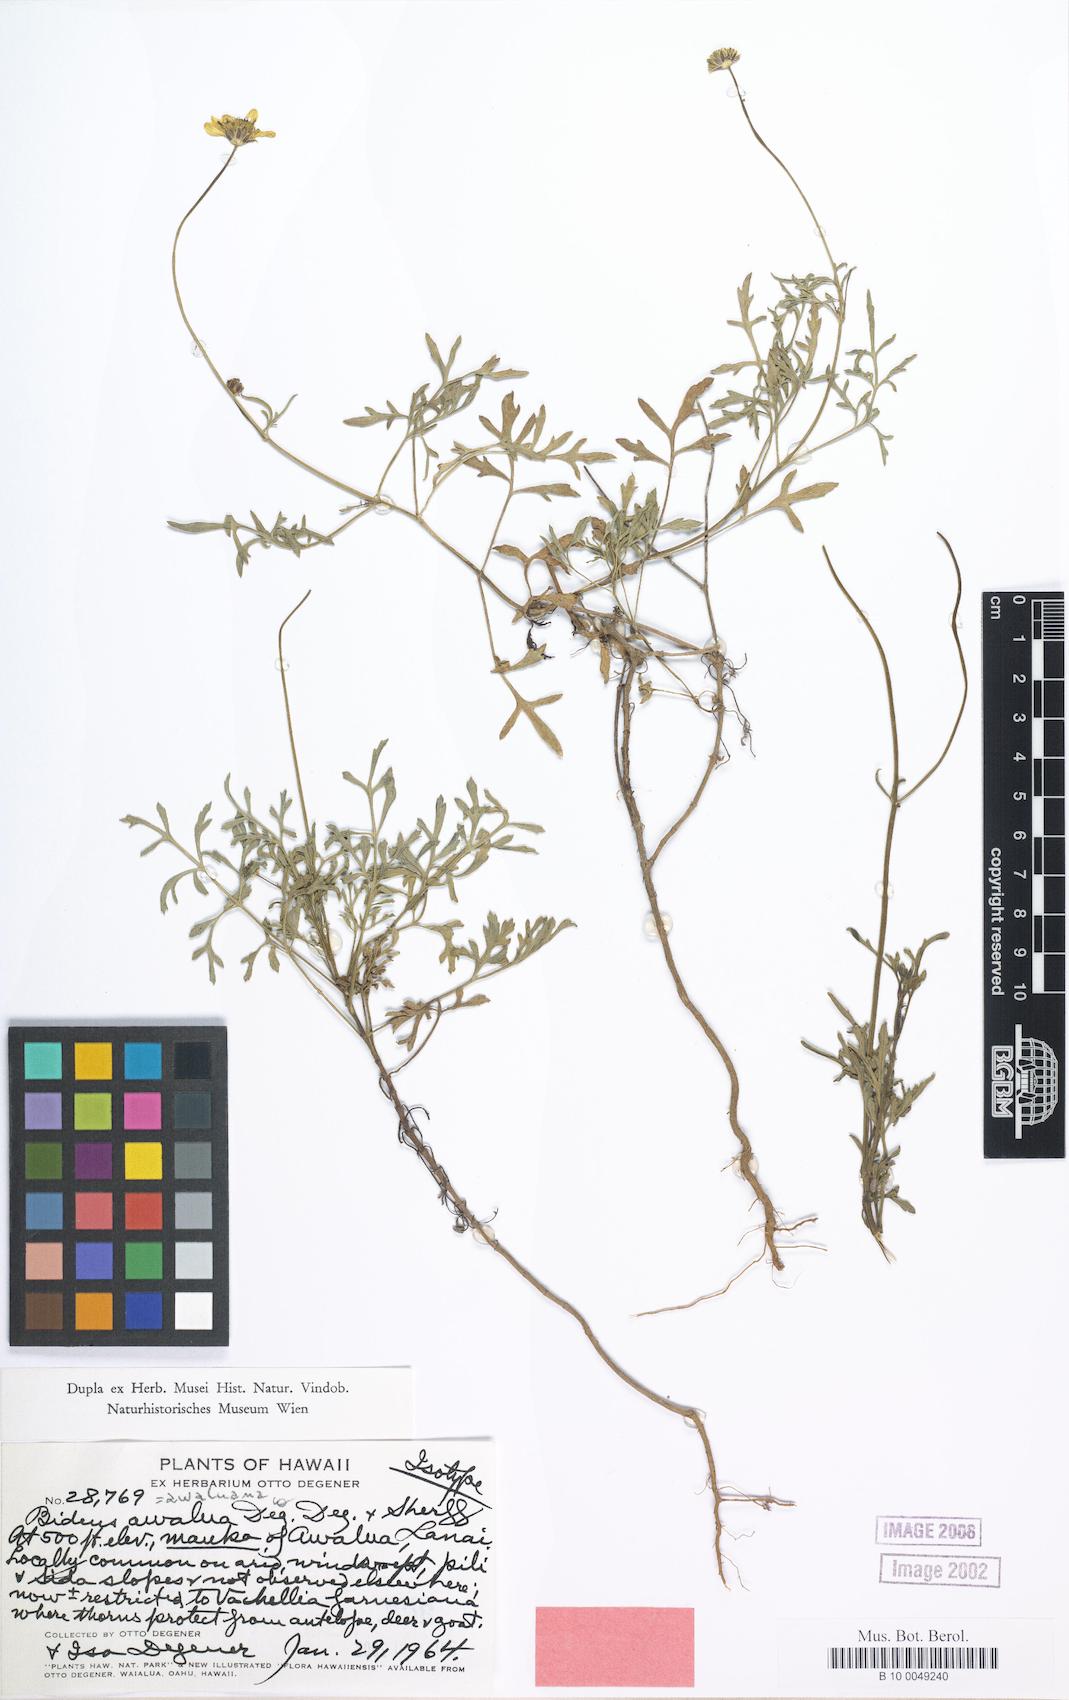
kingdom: Plantae
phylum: Tracheophyta
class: Magnoliopsida
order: Asterales
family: Asteraceae
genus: Bidens
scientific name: Bidens mauiensis
